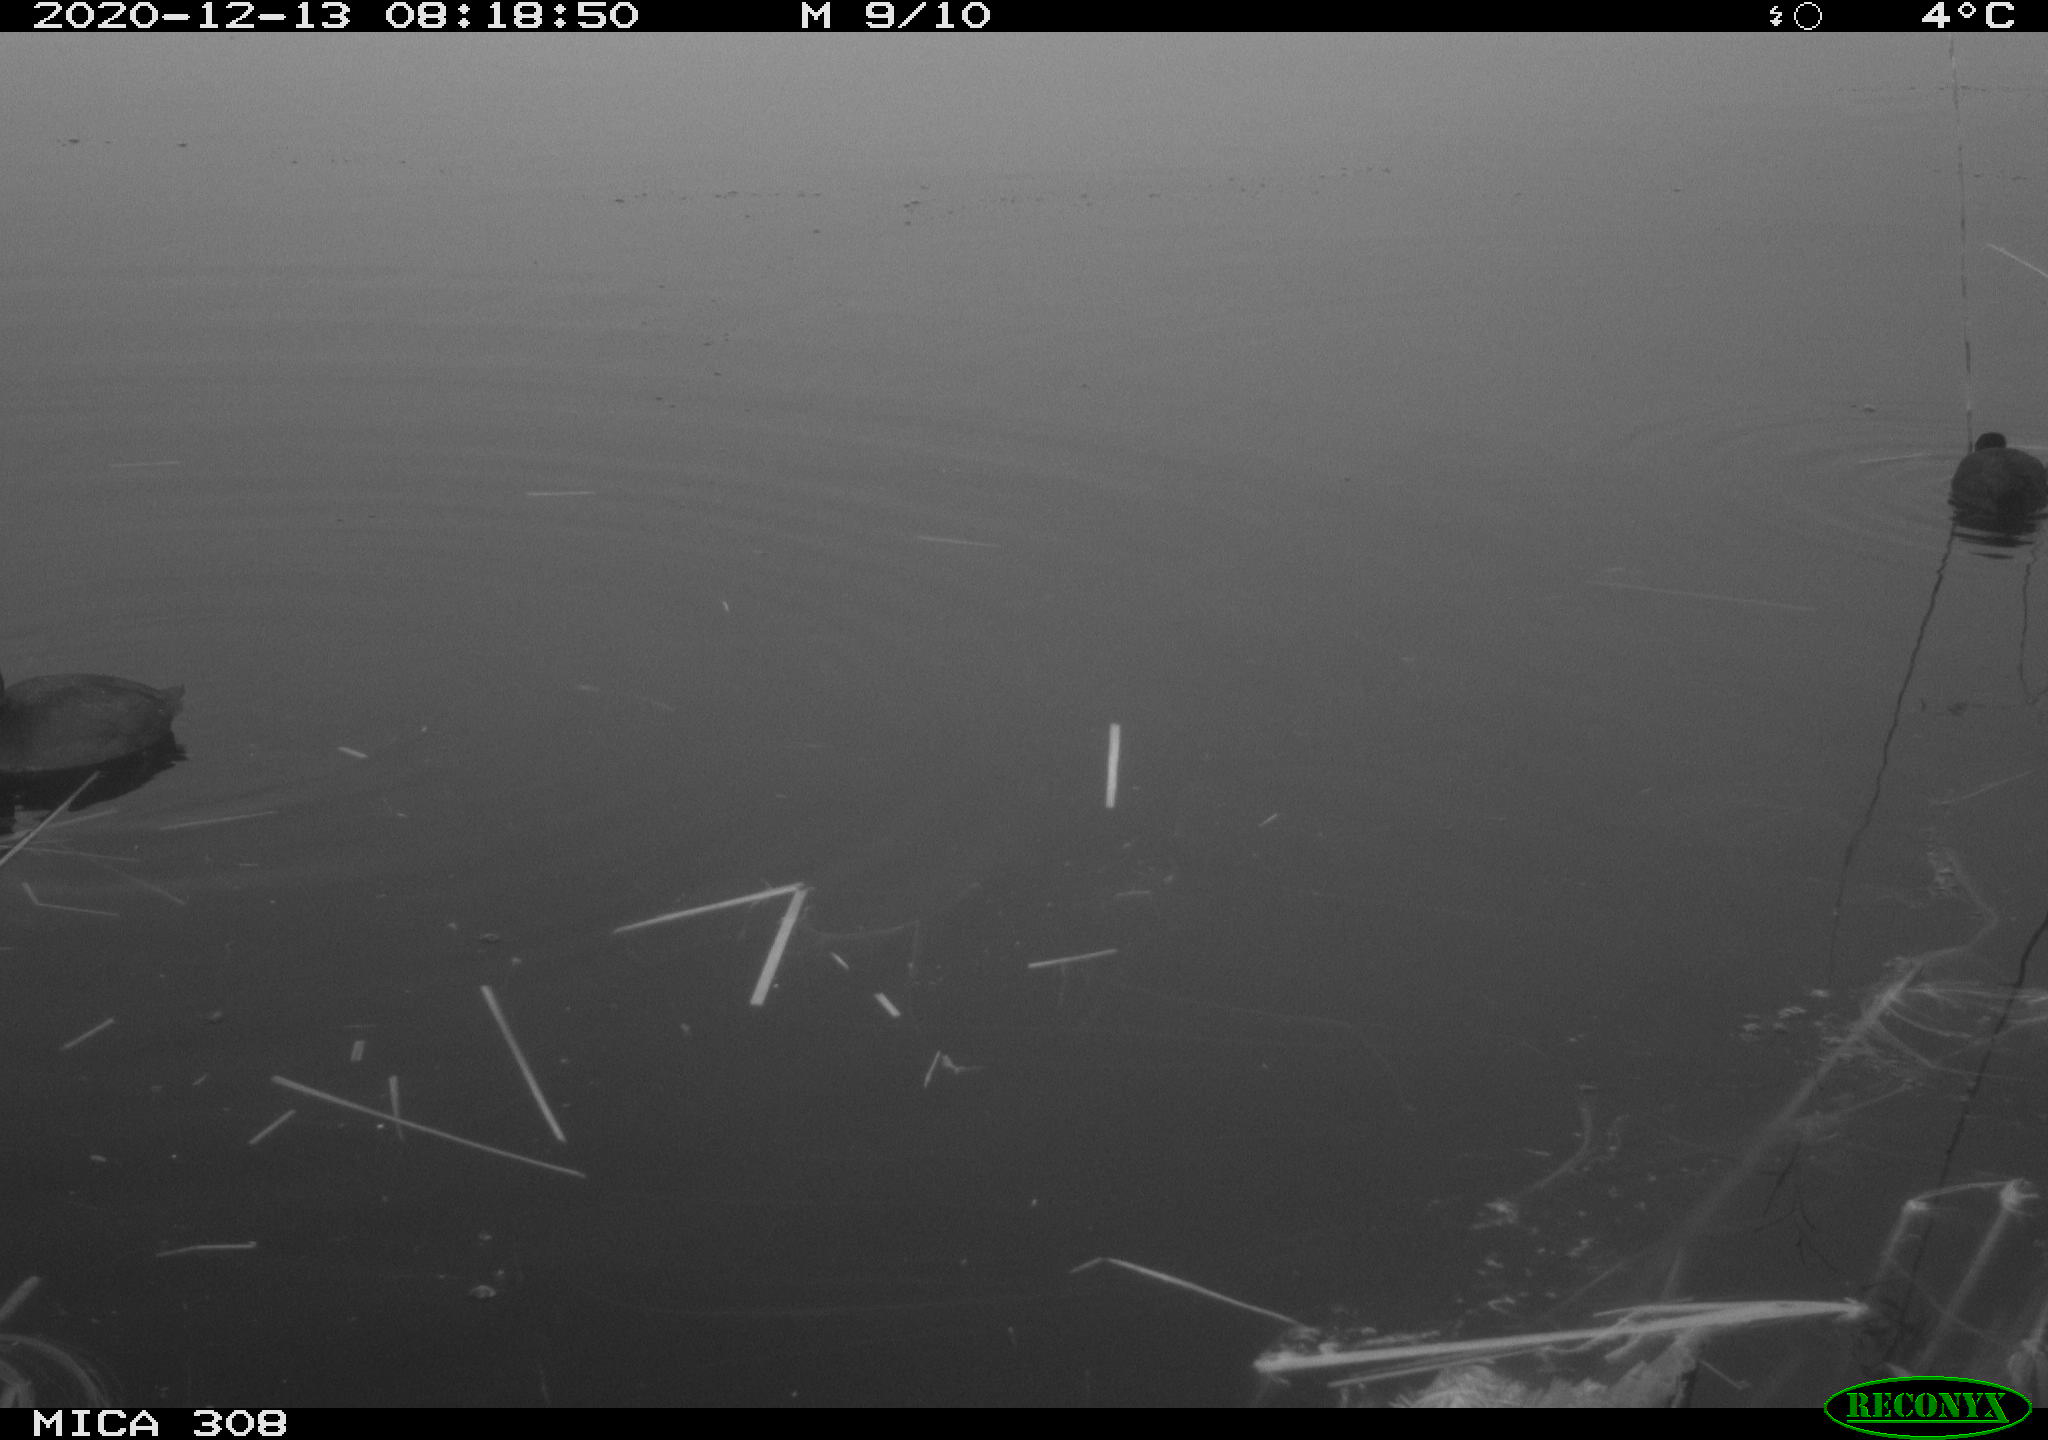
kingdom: Animalia
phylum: Chordata
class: Aves
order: Gruiformes
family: Rallidae
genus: Gallinula
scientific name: Gallinula chloropus
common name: Common moorhen
